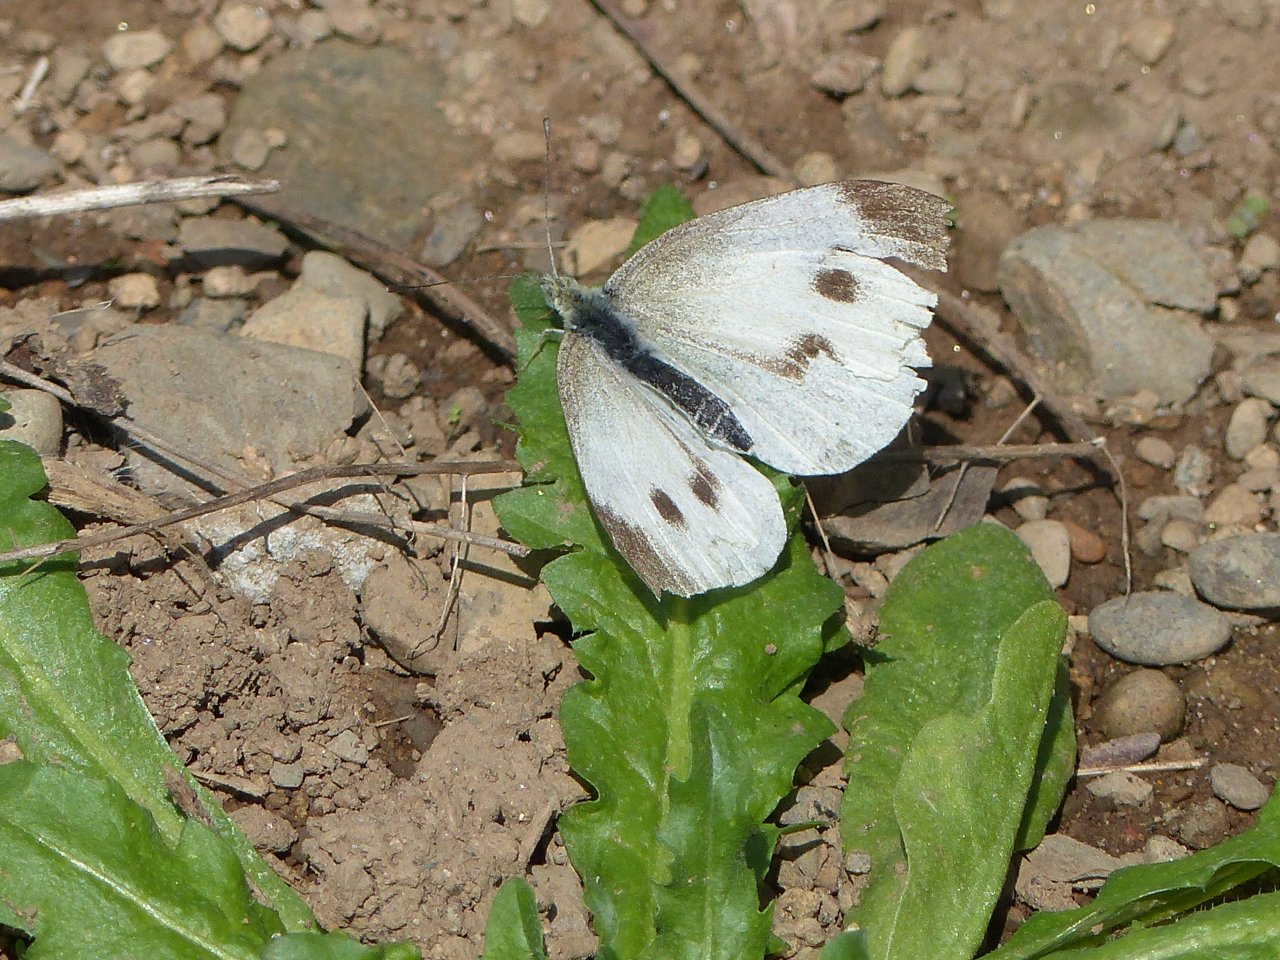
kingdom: Animalia
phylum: Arthropoda
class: Insecta
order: Lepidoptera
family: Pieridae
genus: Pieris
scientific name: Pieris rapae
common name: Cabbage White
